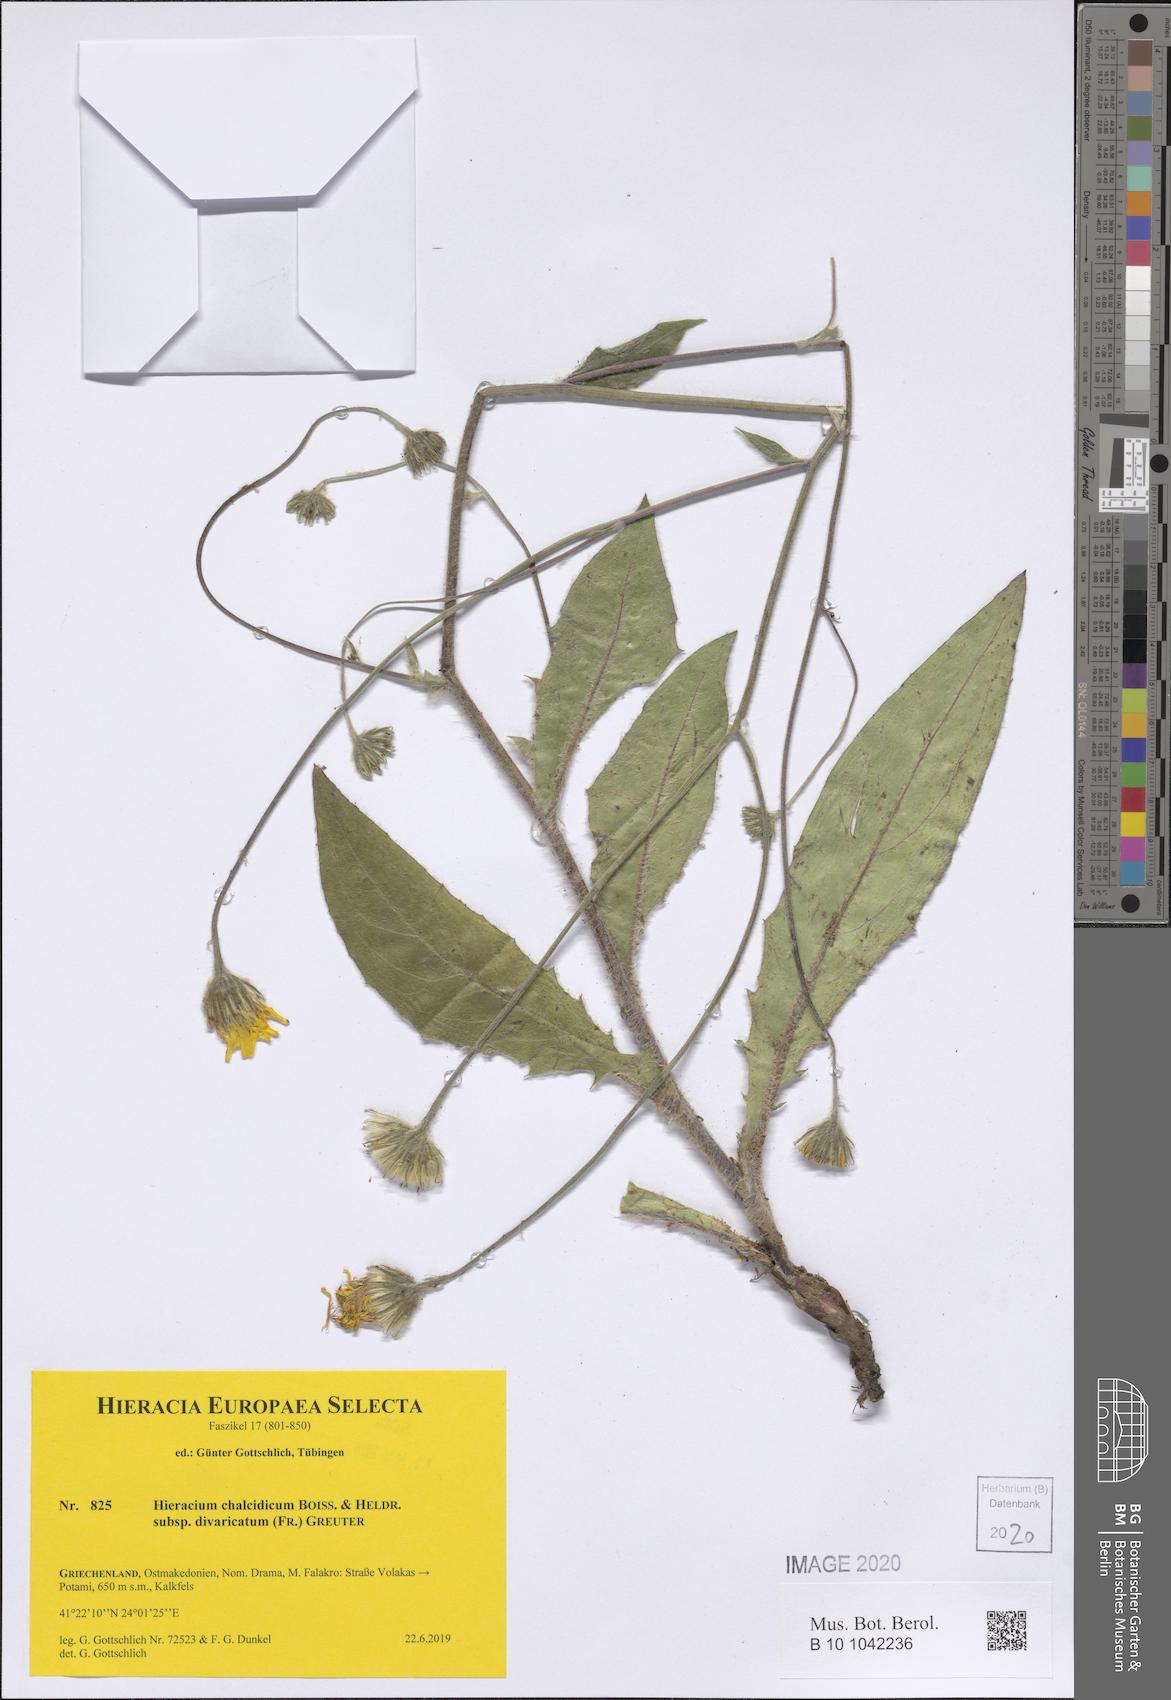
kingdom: Plantae
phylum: Tracheophyta
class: Magnoliopsida
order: Asterales
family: Asteraceae
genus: Hieracium
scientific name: Hieracium chalcidicum
